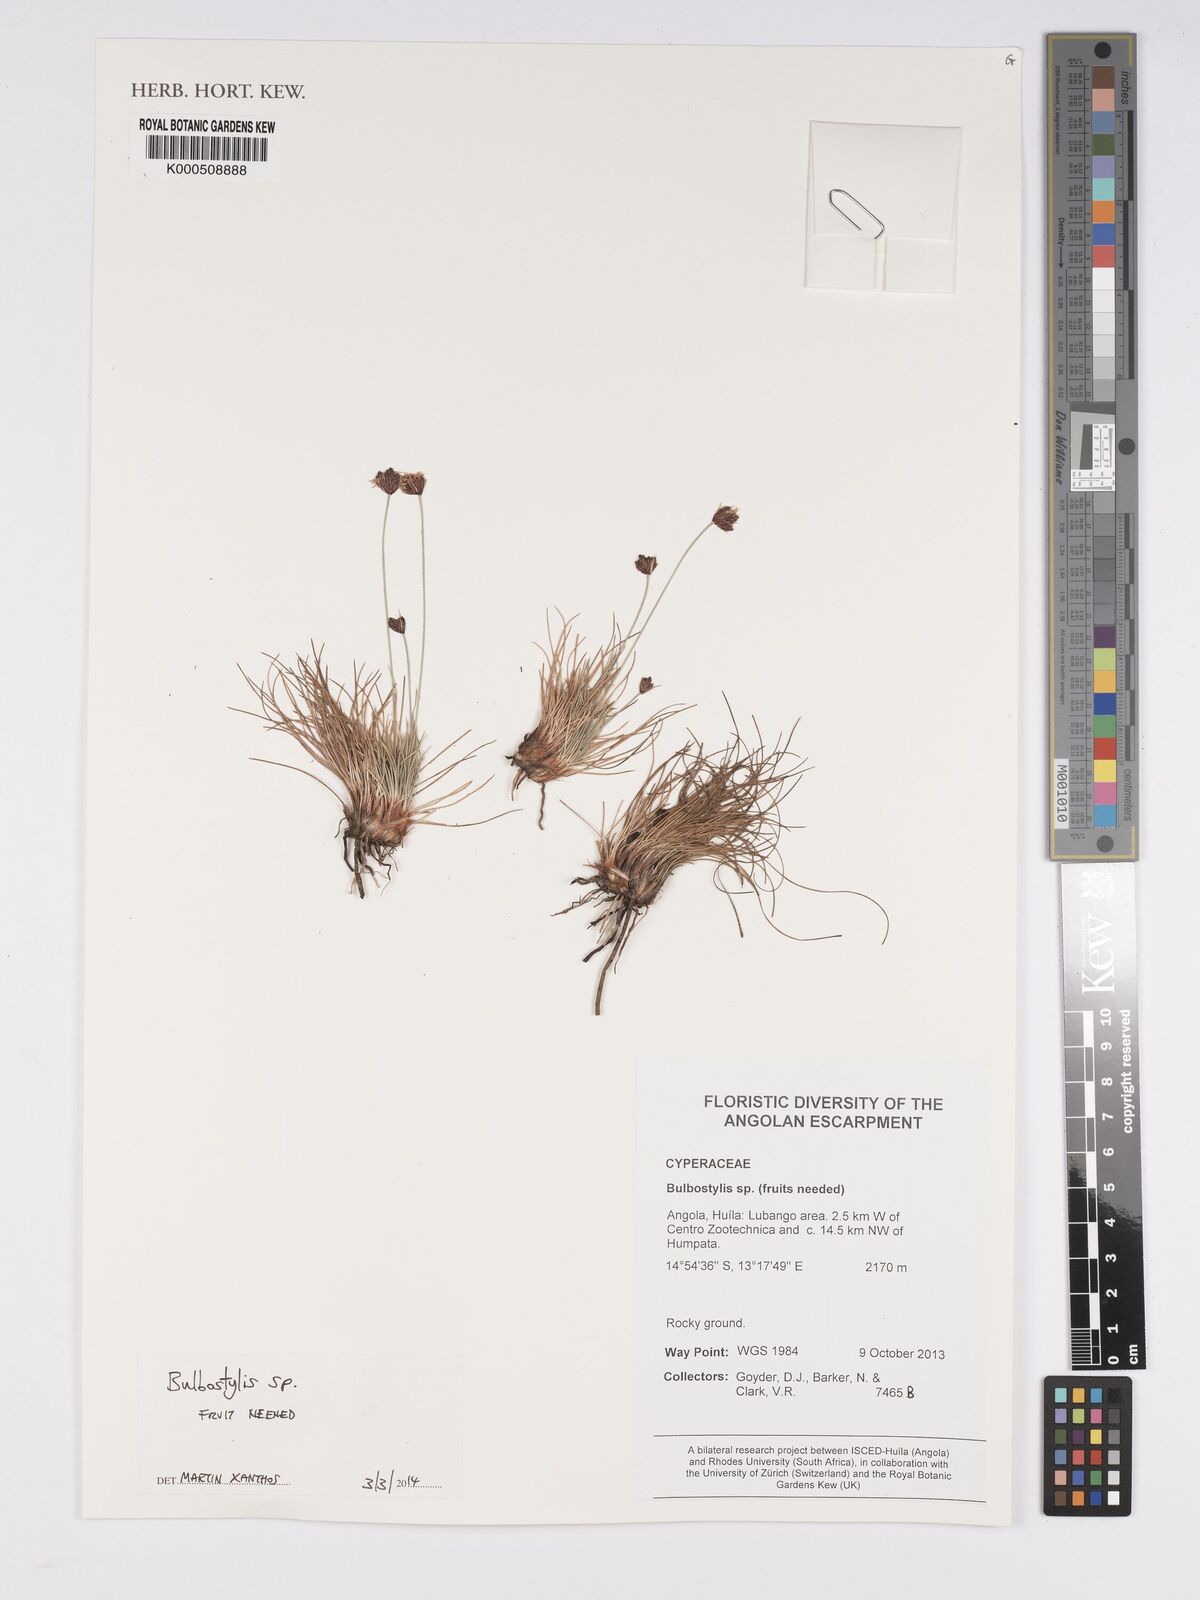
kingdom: Plantae
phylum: Tracheophyta
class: Liliopsida
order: Poales
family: Cyperaceae
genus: Bulbostylis
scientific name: Bulbostylis
